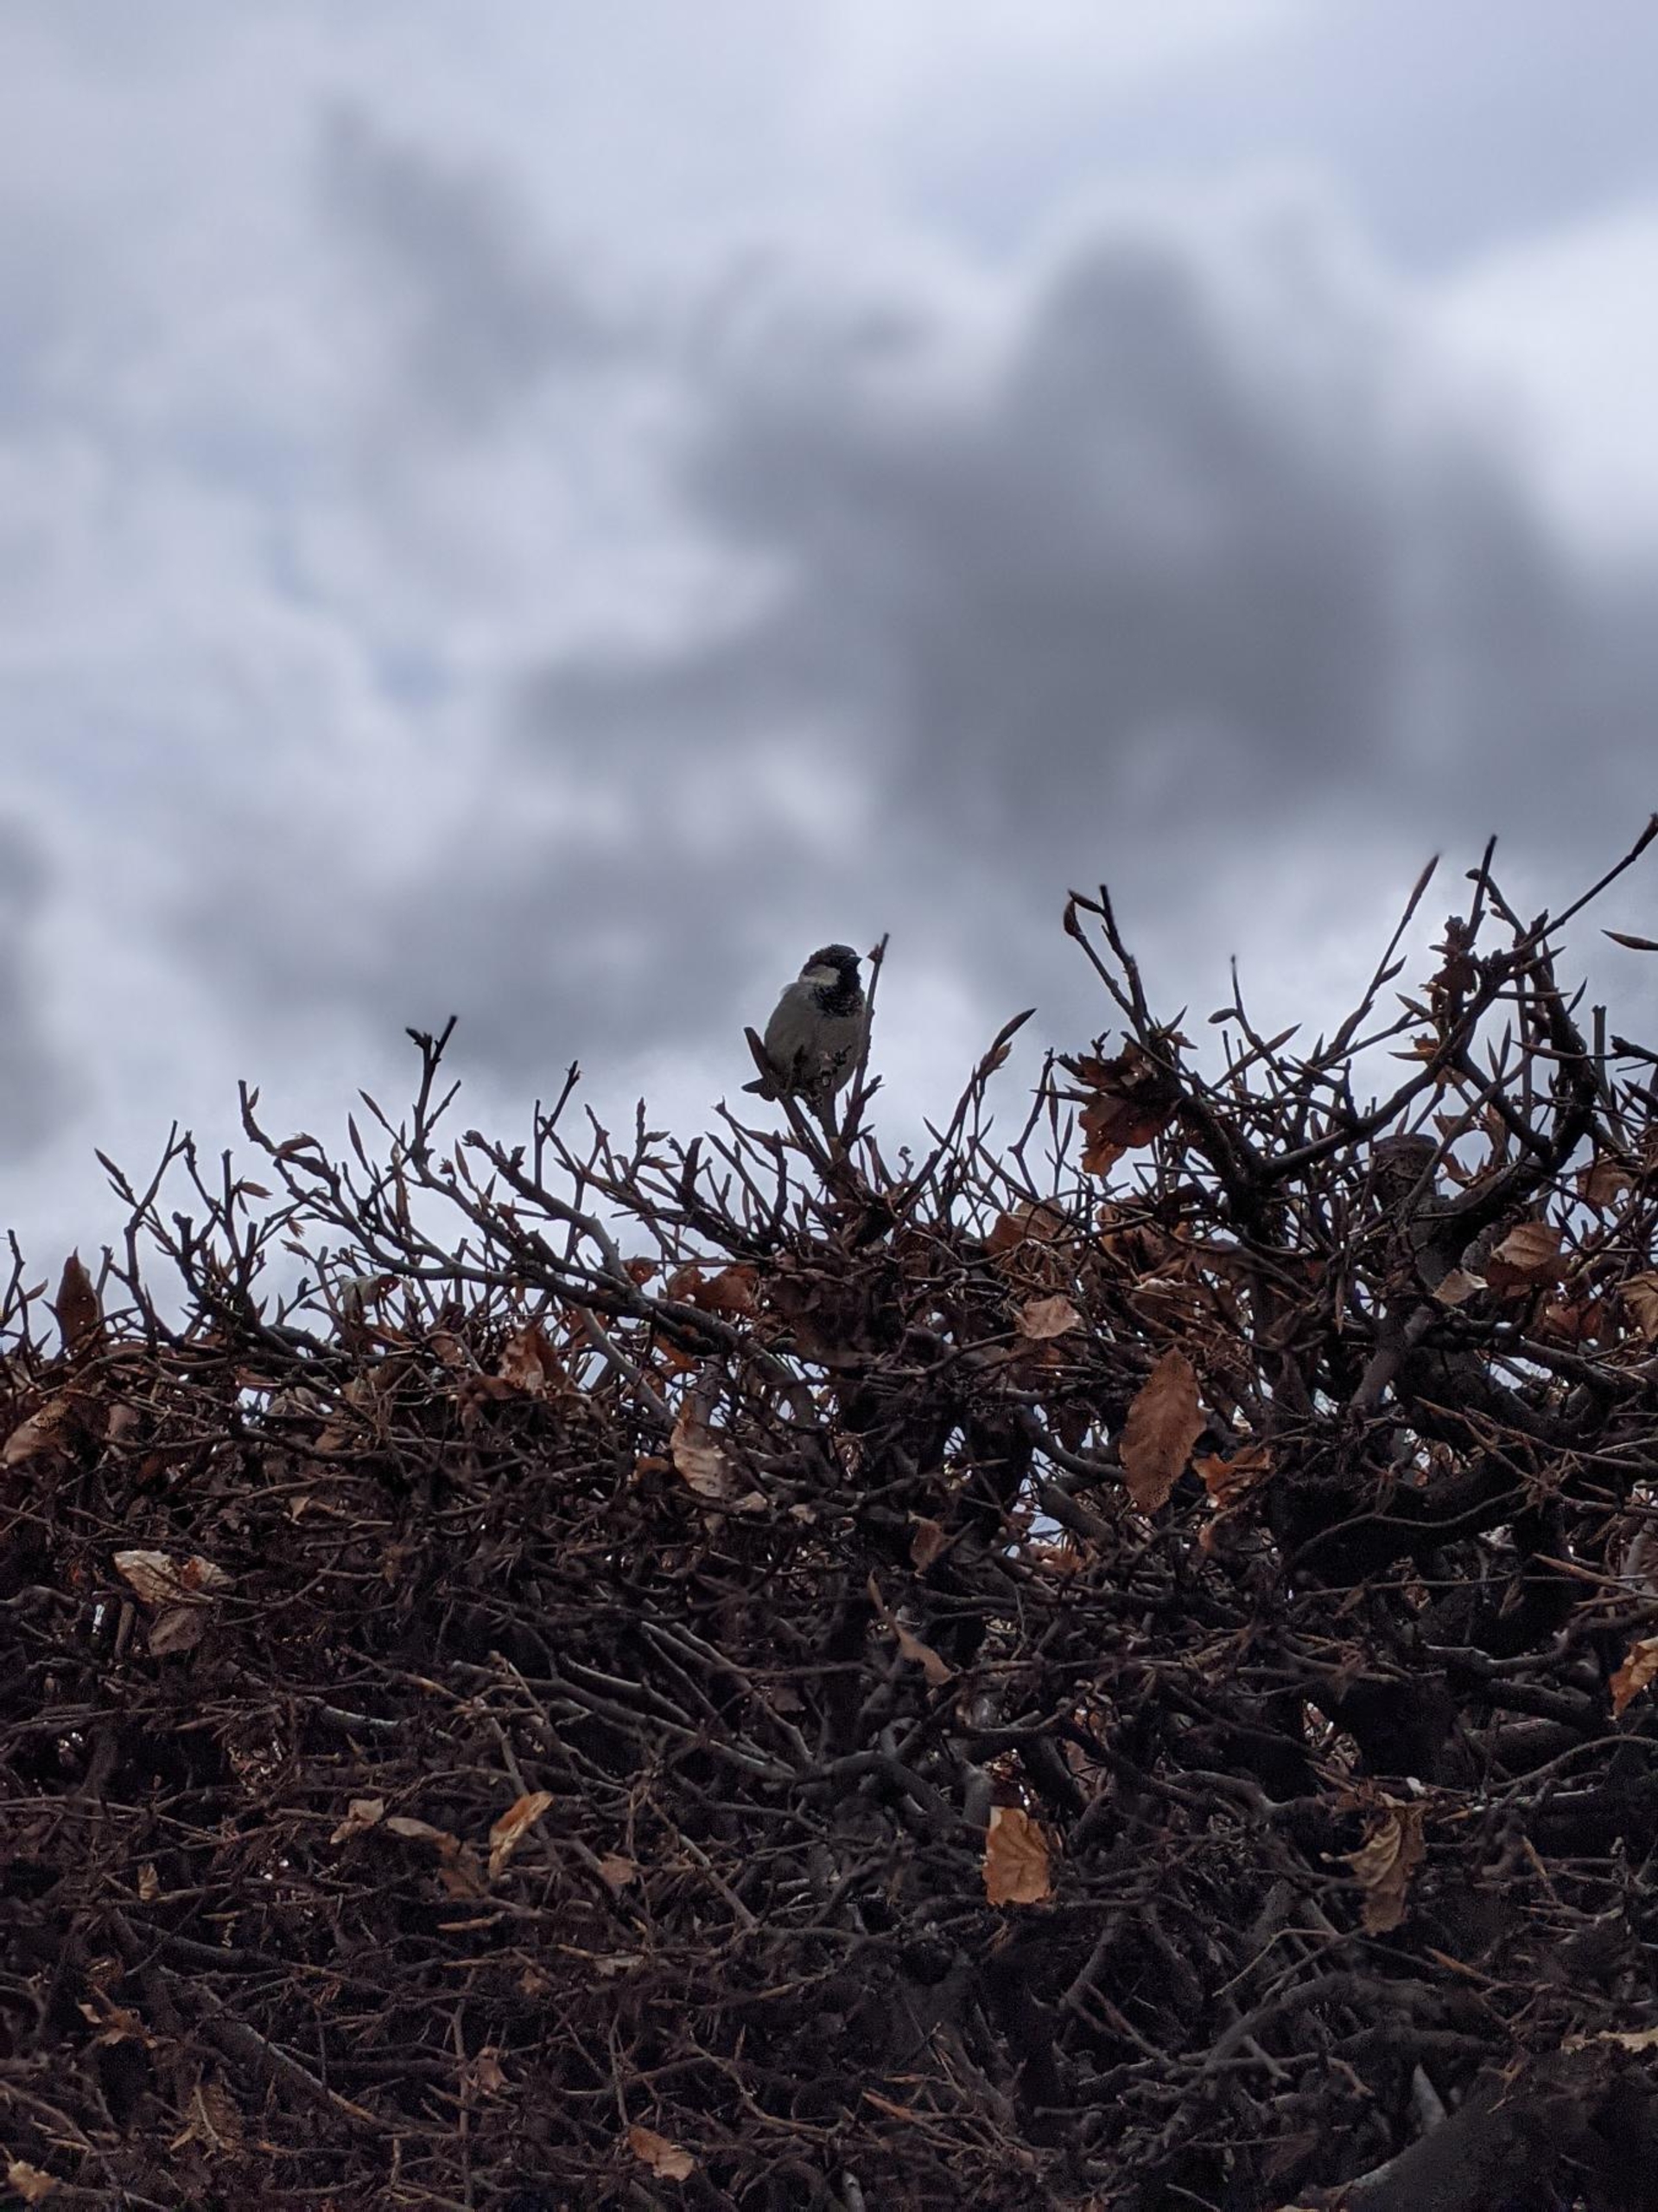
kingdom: Animalia
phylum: Chordata
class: Aves
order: Passeriformes
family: Passeridae
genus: Passer
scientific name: Passer domesticus
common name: Gråspurv
